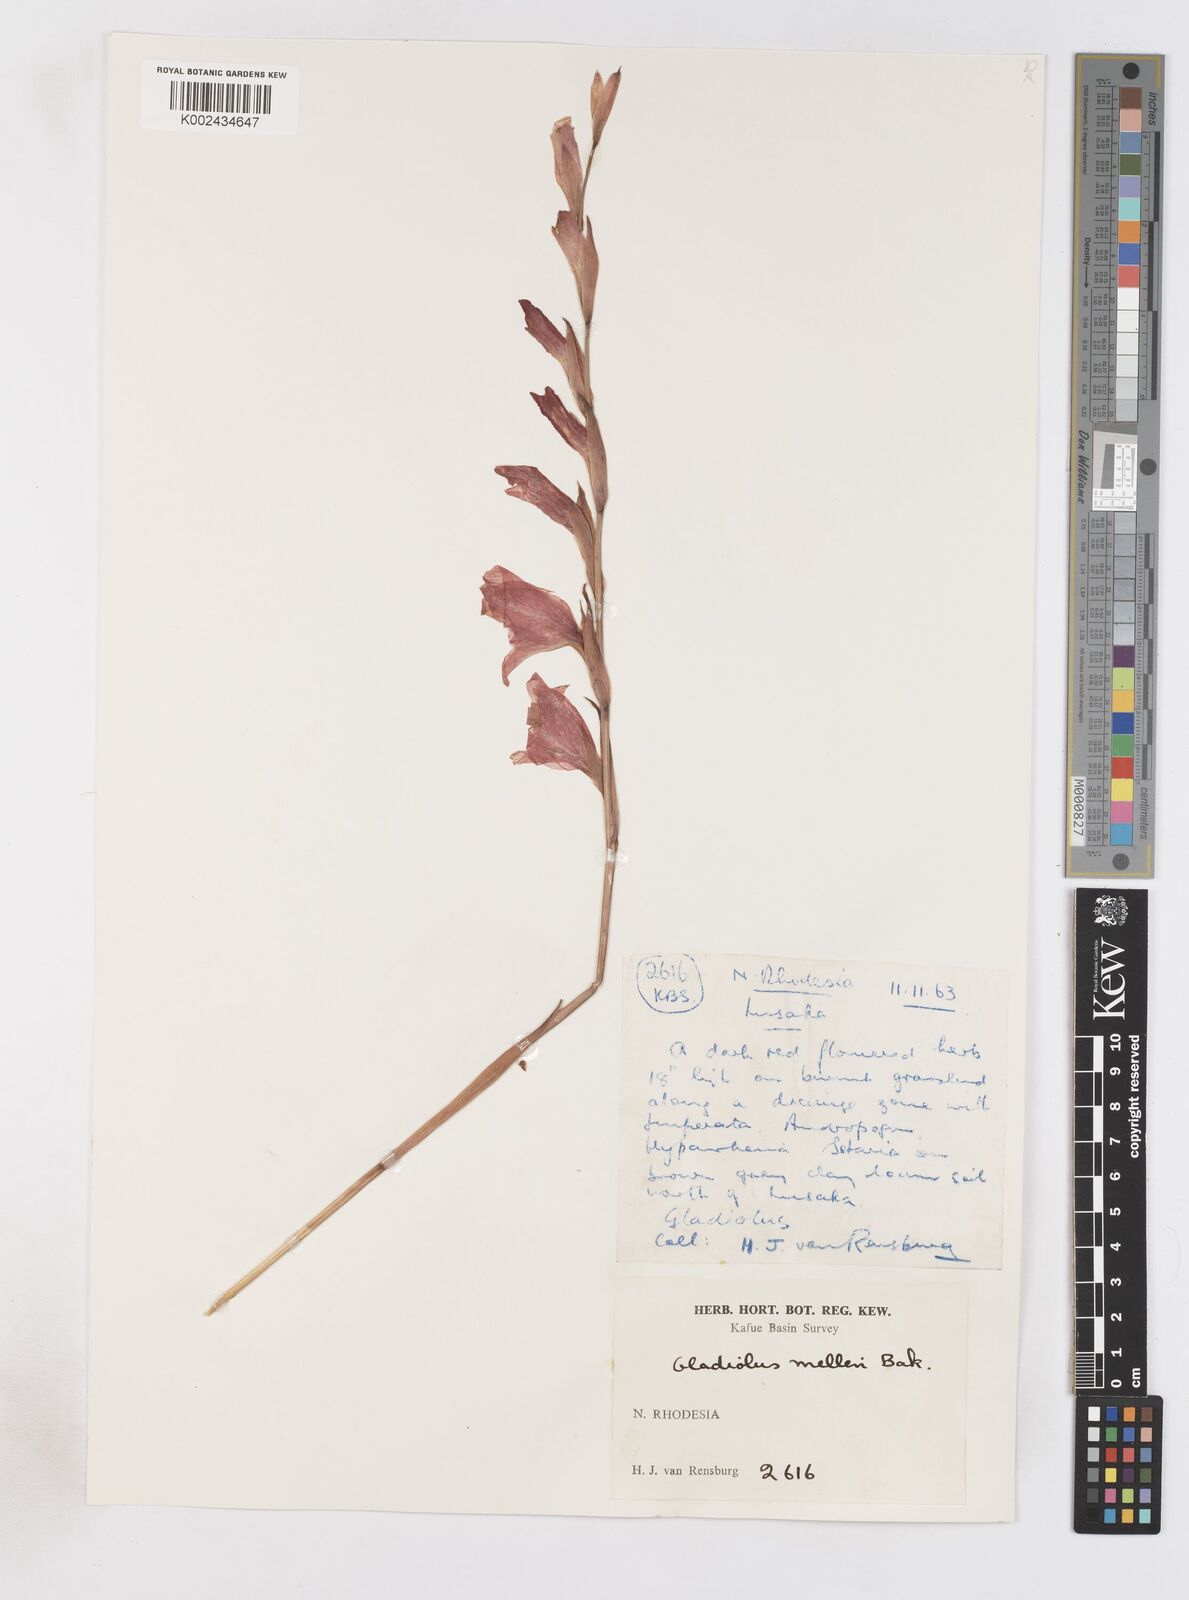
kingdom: Plantae
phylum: Tracheophyta
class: Liliopsida
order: Asparagales
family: Iridaceae
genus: Gladiolus
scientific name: Gladiolus melleri
